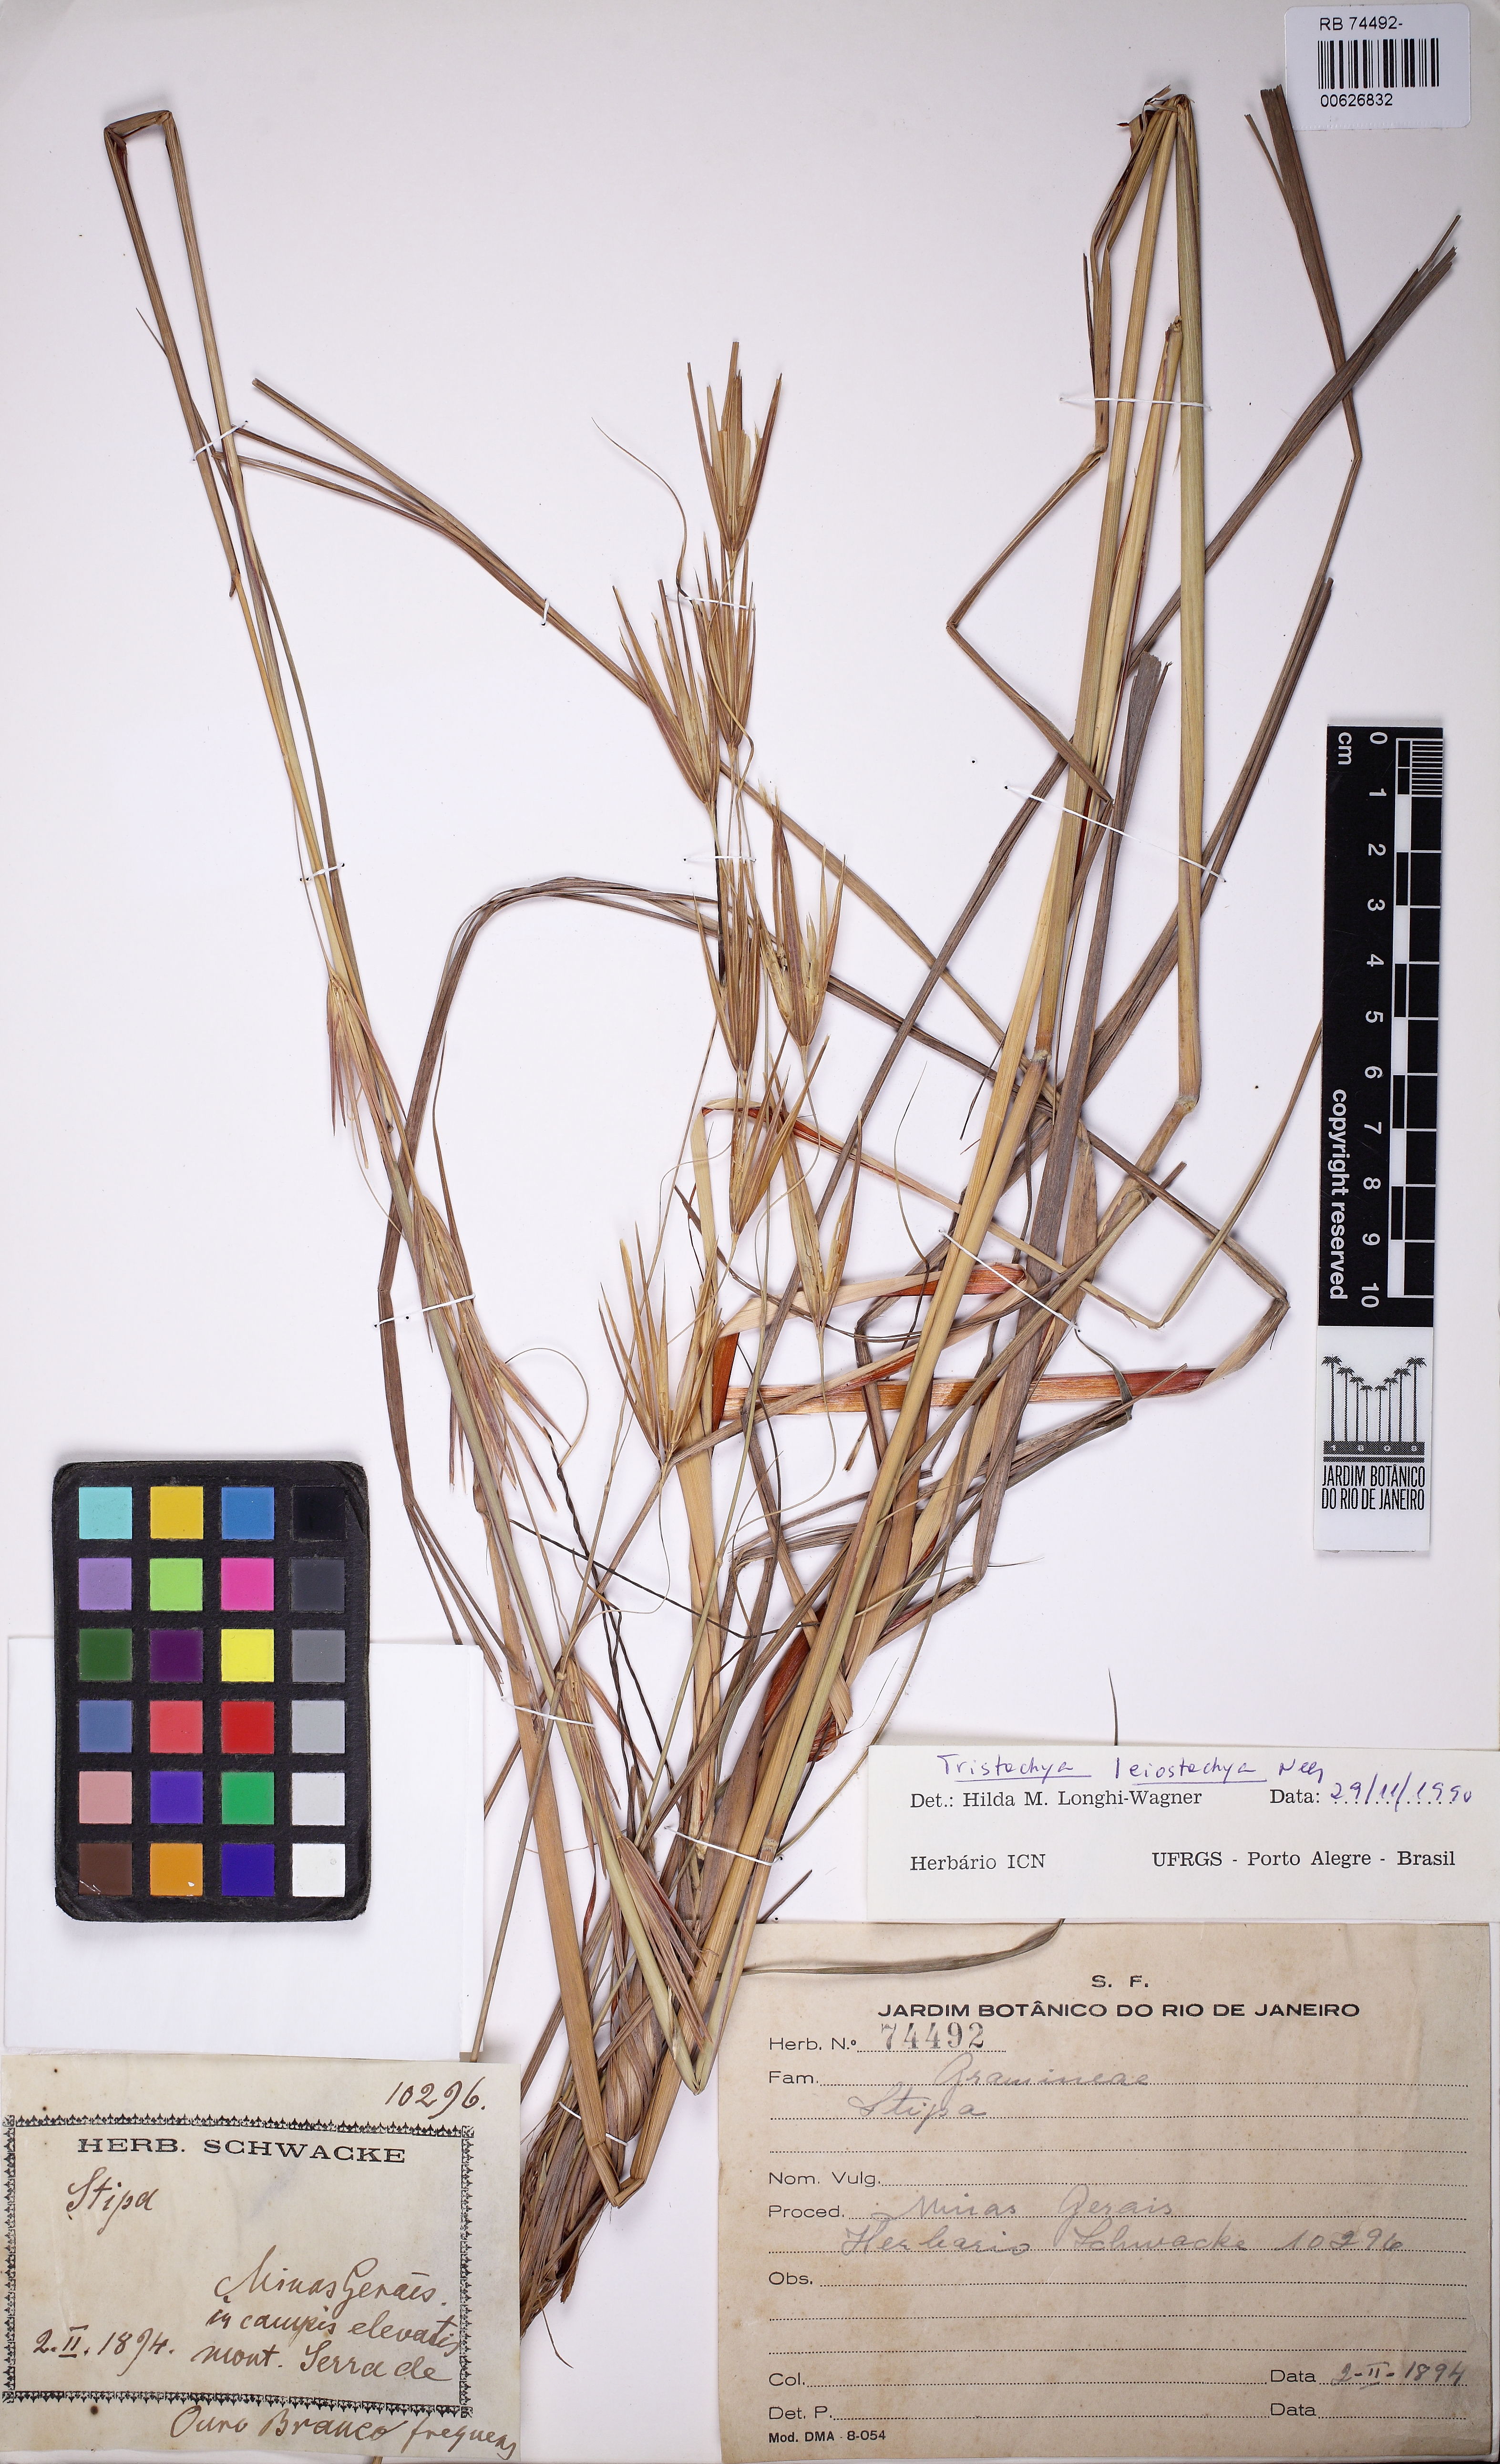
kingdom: Plantae
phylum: Tracheophyta
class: Liliopsida
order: Poales
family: Poaceae
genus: Tristachya
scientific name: Tristachya leiostachya
